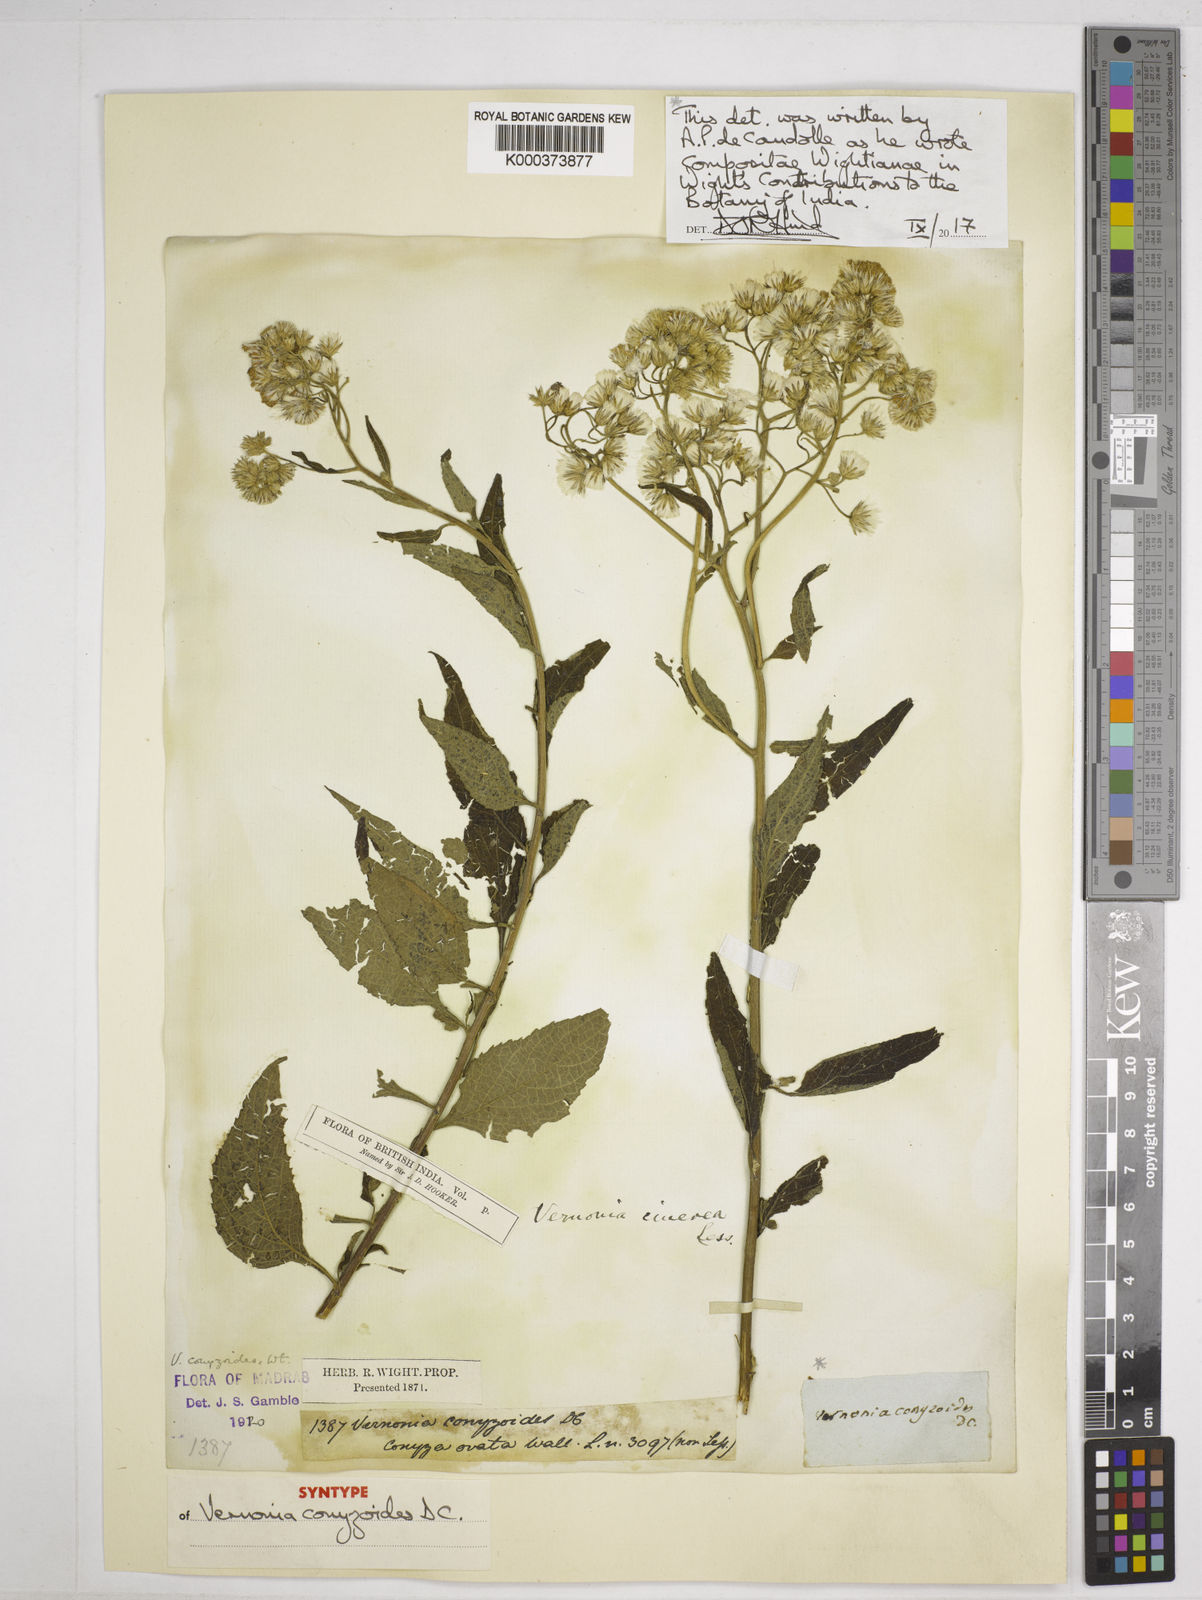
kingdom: Plantae
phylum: Tracheophyta
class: Magnoliopsida
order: Asterales
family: Asteraceae
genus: Cyanthillium
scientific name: Cyanthillium conyzoides
